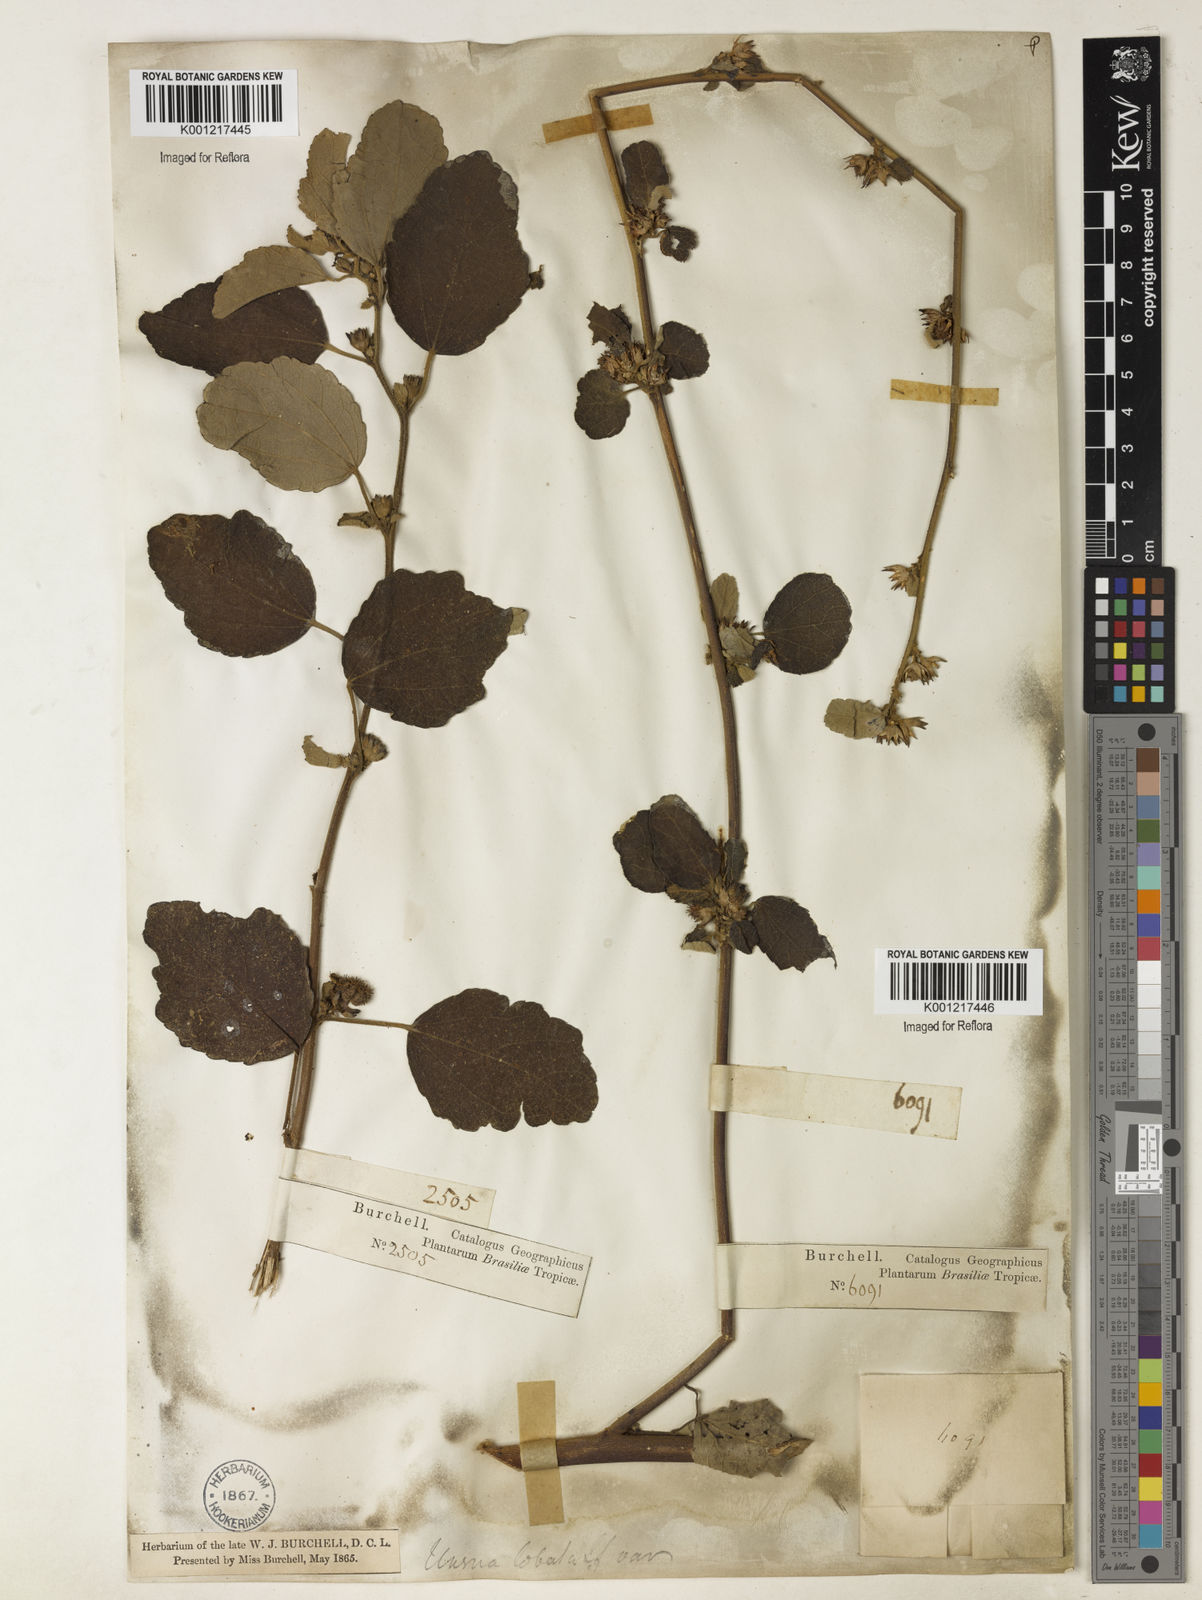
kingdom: Plantae
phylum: Tracheophyta
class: Magnoliopsida
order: Malvales
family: Malvaceae
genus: Urena
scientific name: Urena lobata
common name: Caesarweed
